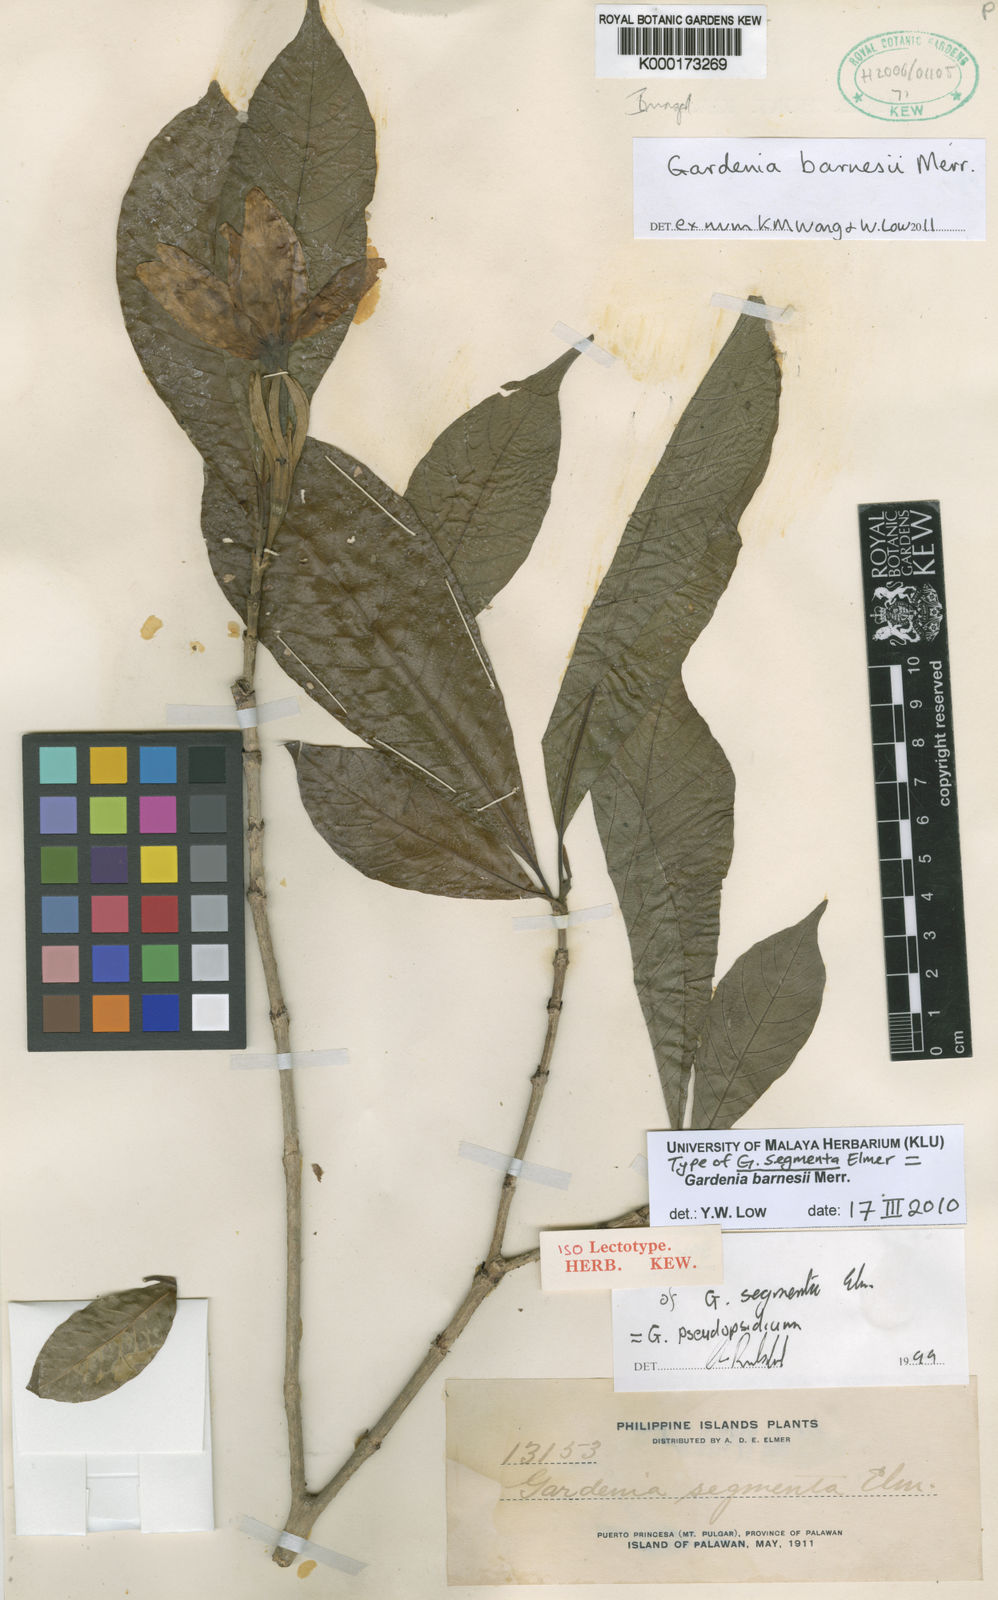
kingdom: Plantae
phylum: Tracheophyta
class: Magnoliopsida
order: Gentianales
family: Rubiaceae
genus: Gardenia
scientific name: Gardenia barnesii
